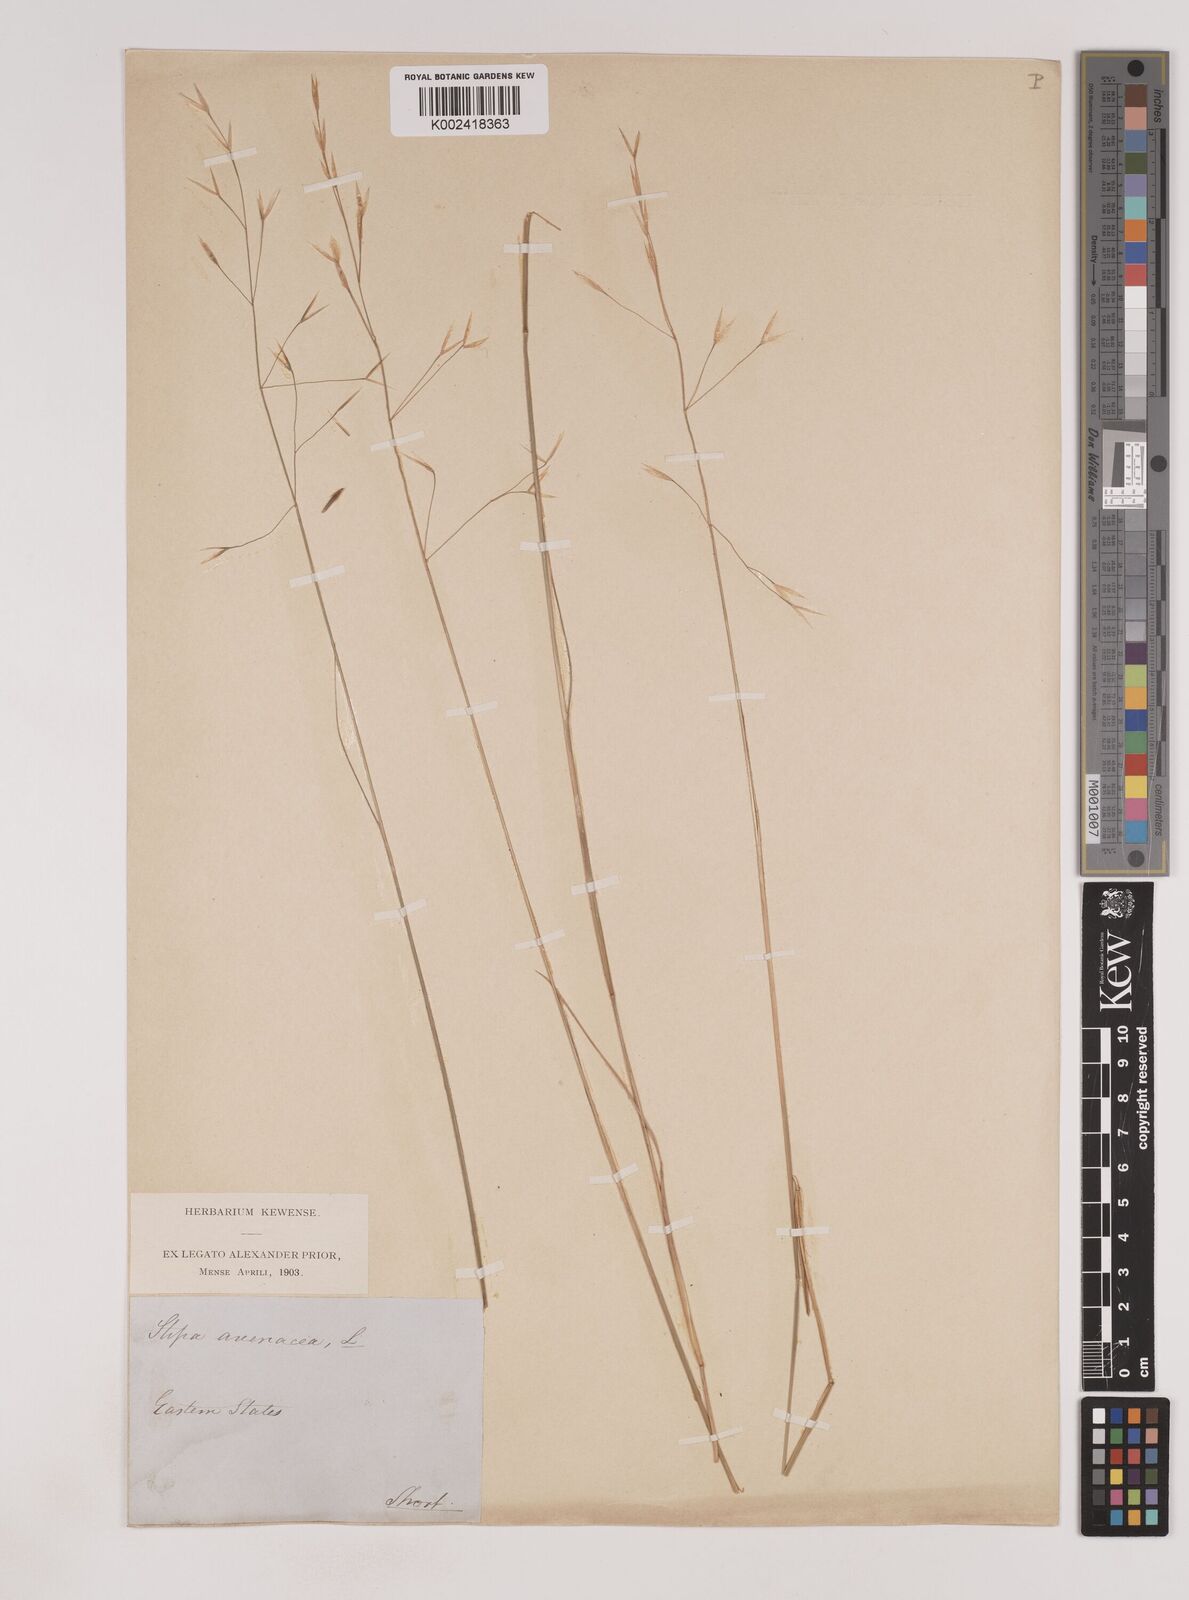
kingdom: Plantae
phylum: Tracheophyta
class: Liliopsida
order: Poales
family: Poaceae
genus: Piptochaetium
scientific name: Piptochaetium avenaceum
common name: Black bunchgrass
